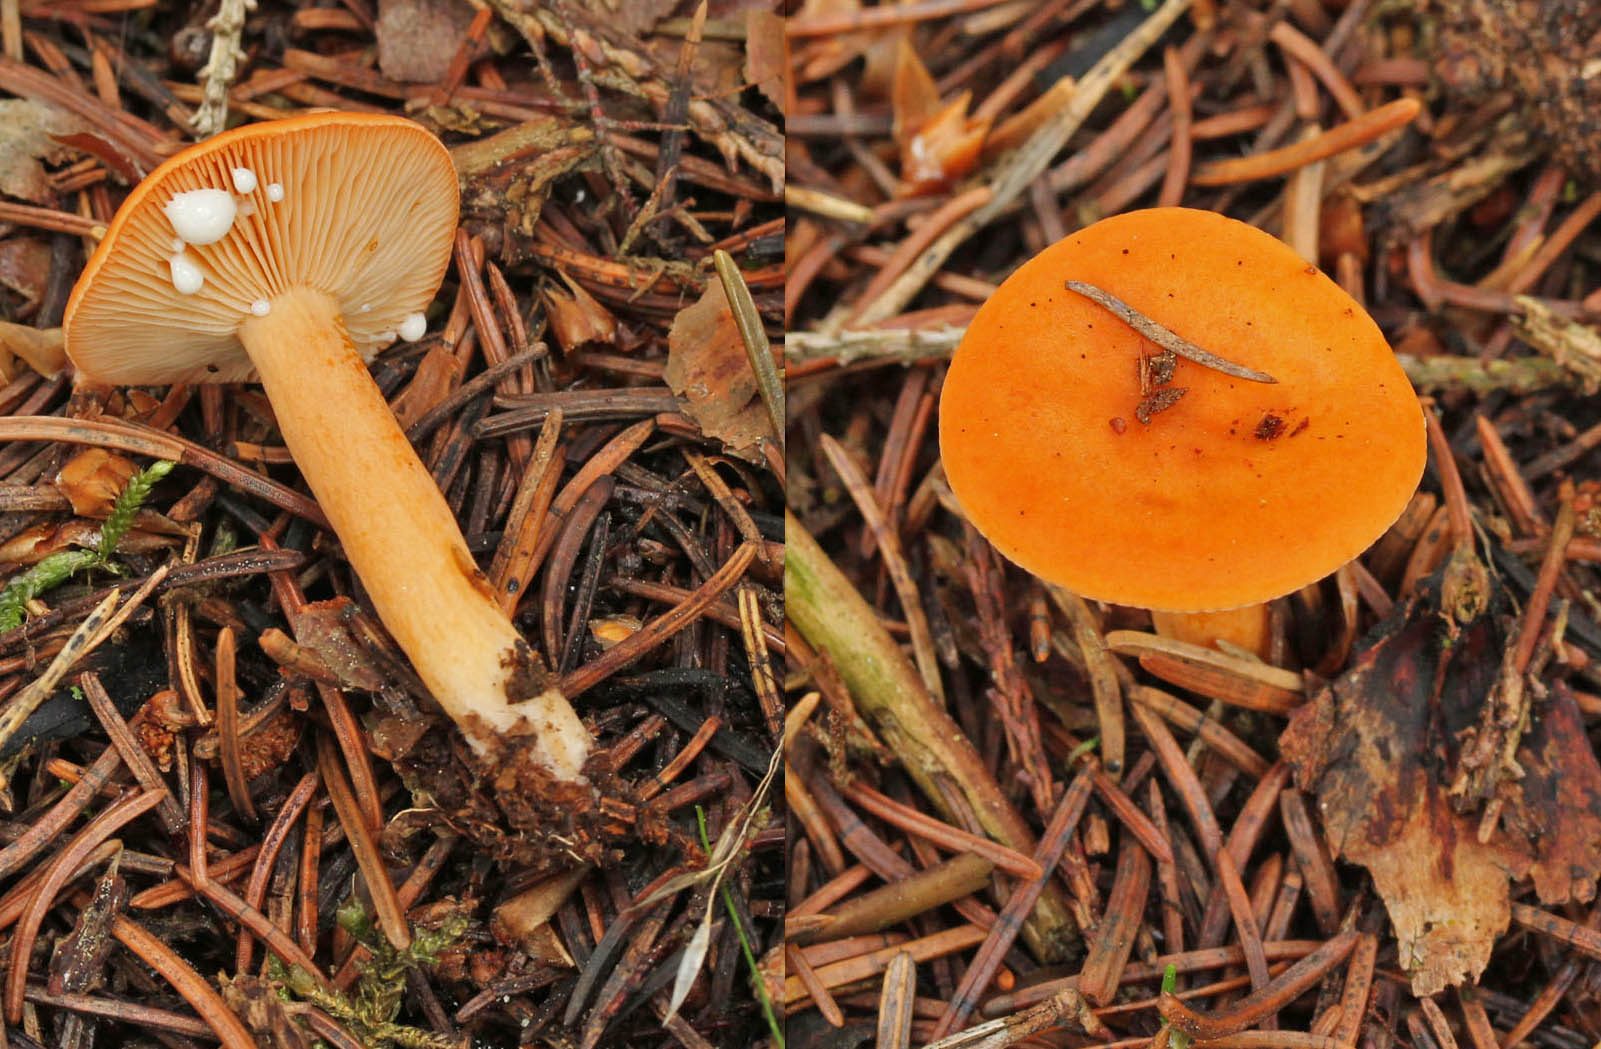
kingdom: Fungi
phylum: Basidiomycota
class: Agaricomycetes
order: Russulales
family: Russulaceae
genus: Lactarius
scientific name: Lactarius aurantiacus
